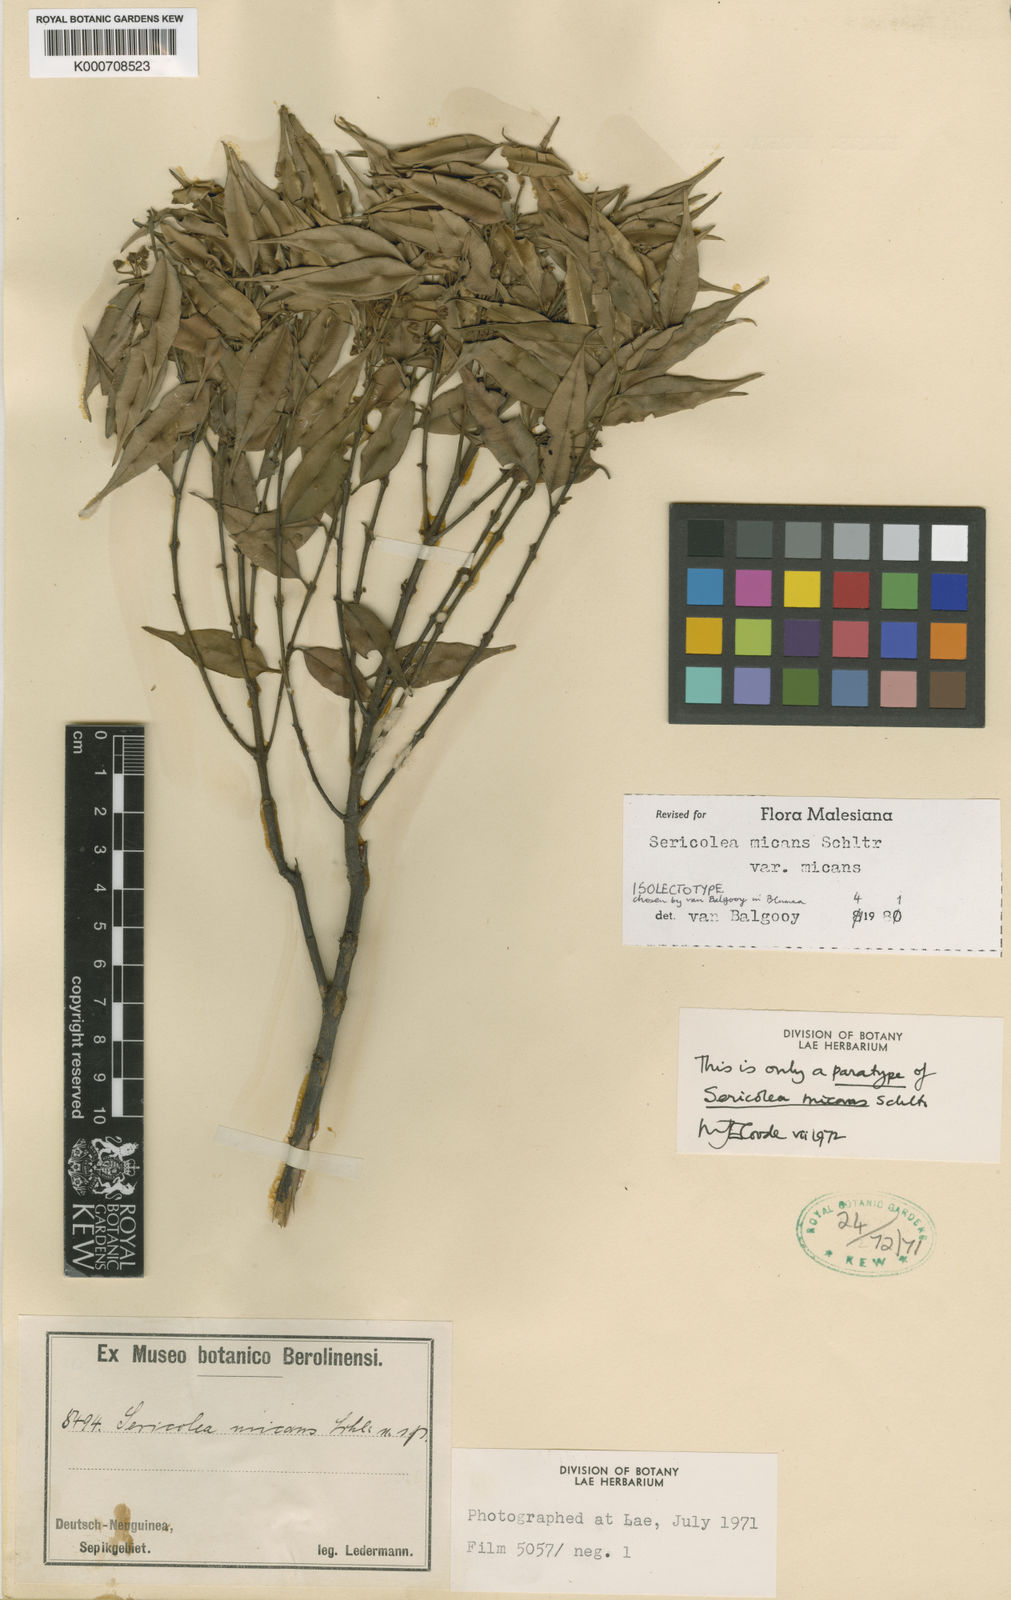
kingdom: Plantae
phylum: Tracheophyta
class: Magnoliopsida
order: Oxalidales
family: Elaeocarpaceae
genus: Sericolea
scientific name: Sericolea micans
